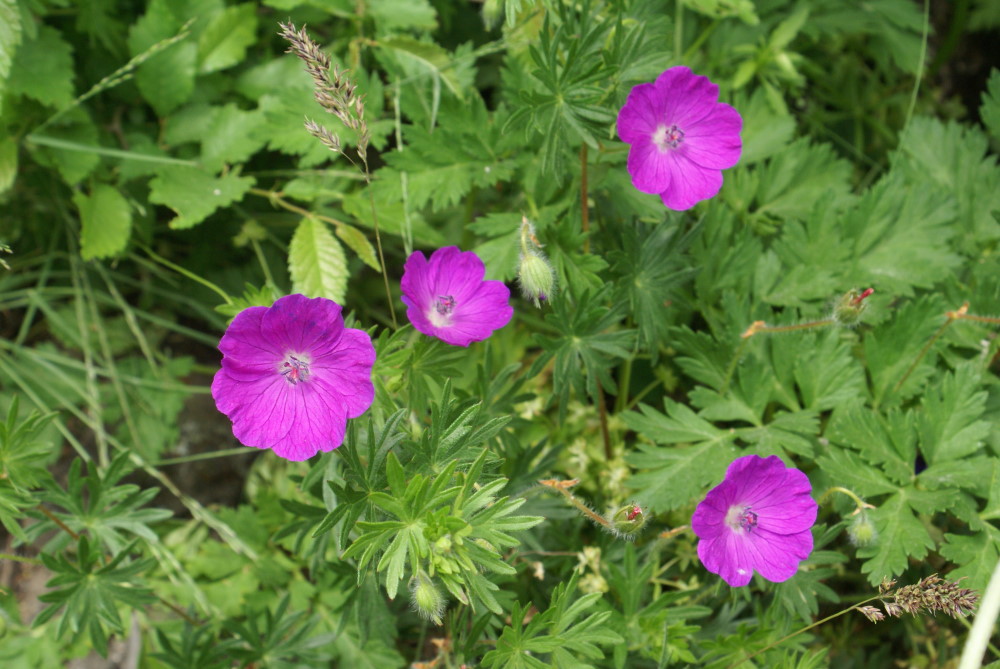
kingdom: Plantae
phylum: Tracheophyta
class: Magnoliopsida
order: Geraniales
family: Geraniaceae
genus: Geranium
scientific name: Geranium sanguineum
